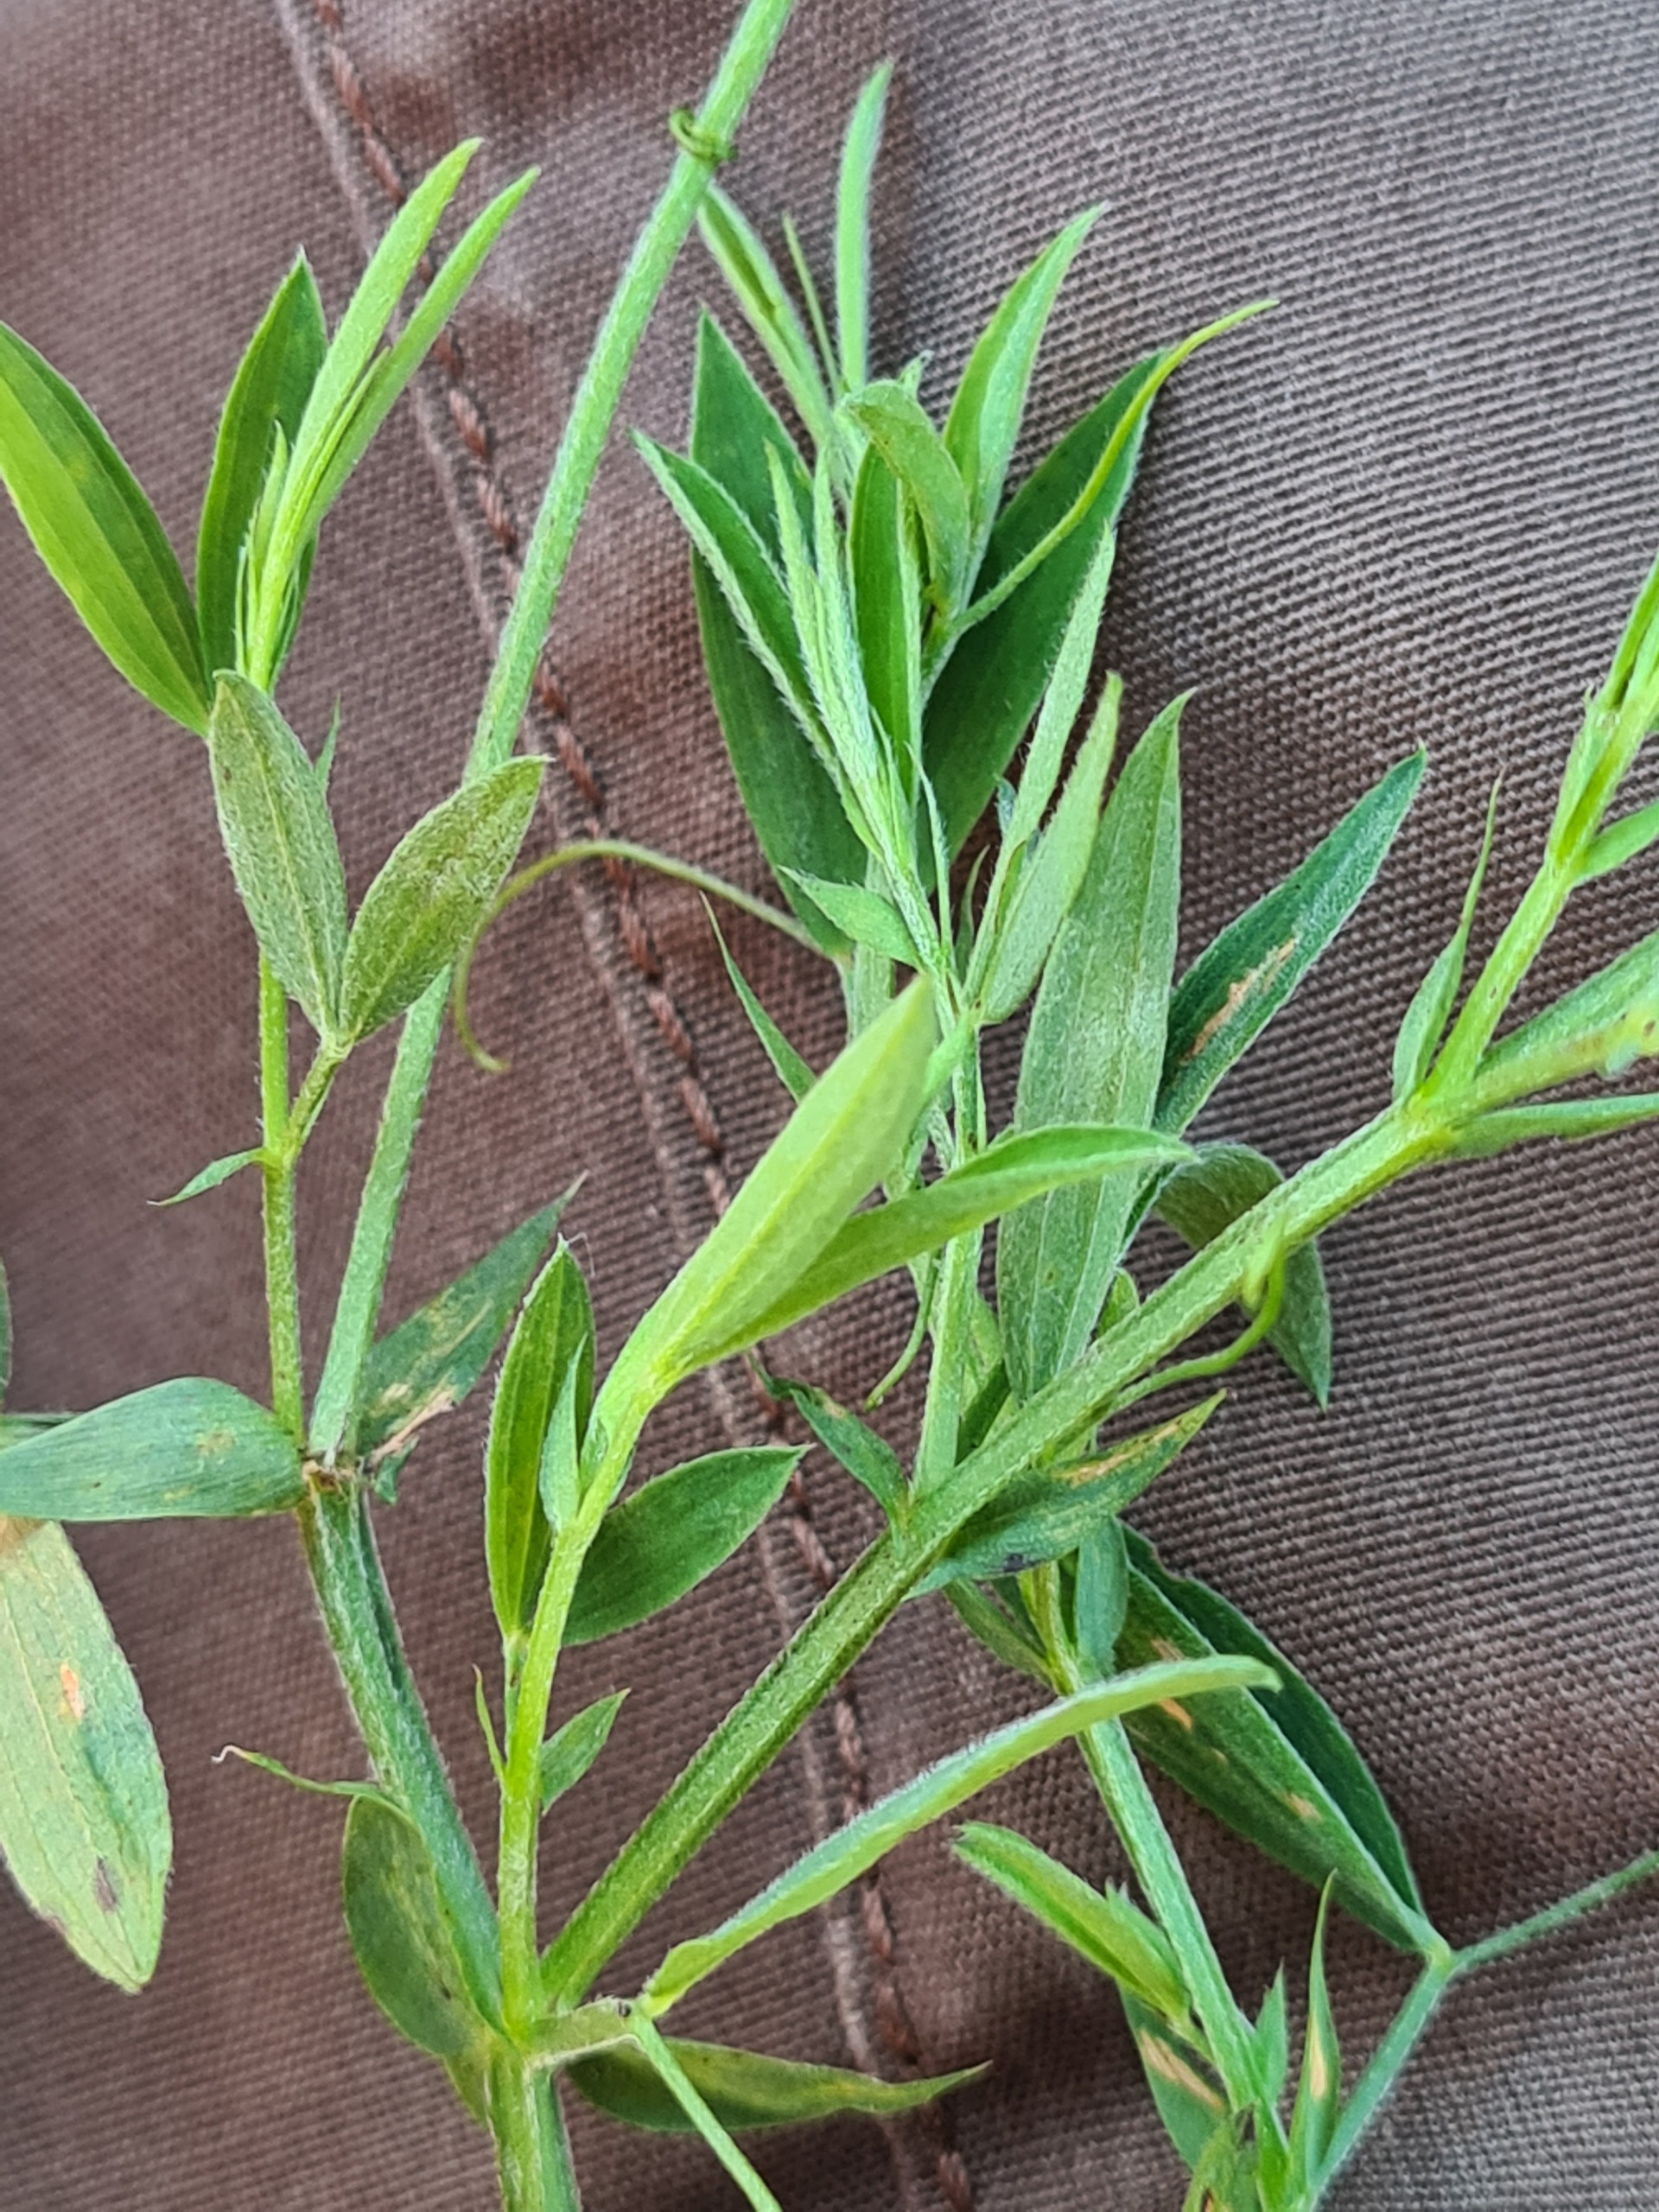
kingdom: Plantae
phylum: Tracheophyta
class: Magnoliopsida
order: Fabales
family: Fabaceae
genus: Lathyrus
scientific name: Lathyrus pratensis
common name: Gul fladbælg
